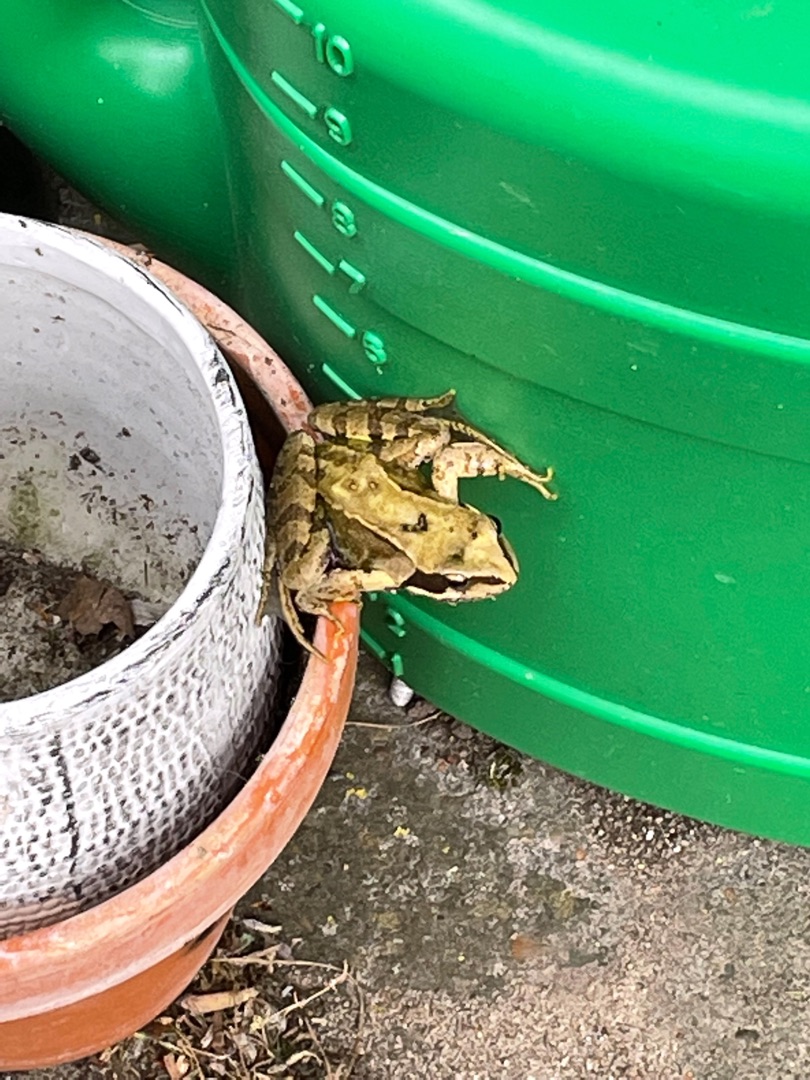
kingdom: Animalia
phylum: Chordata
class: Amphibia
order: Anura
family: Ranidae
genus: Rana
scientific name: Rana temporaria
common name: Butsnudet frø
